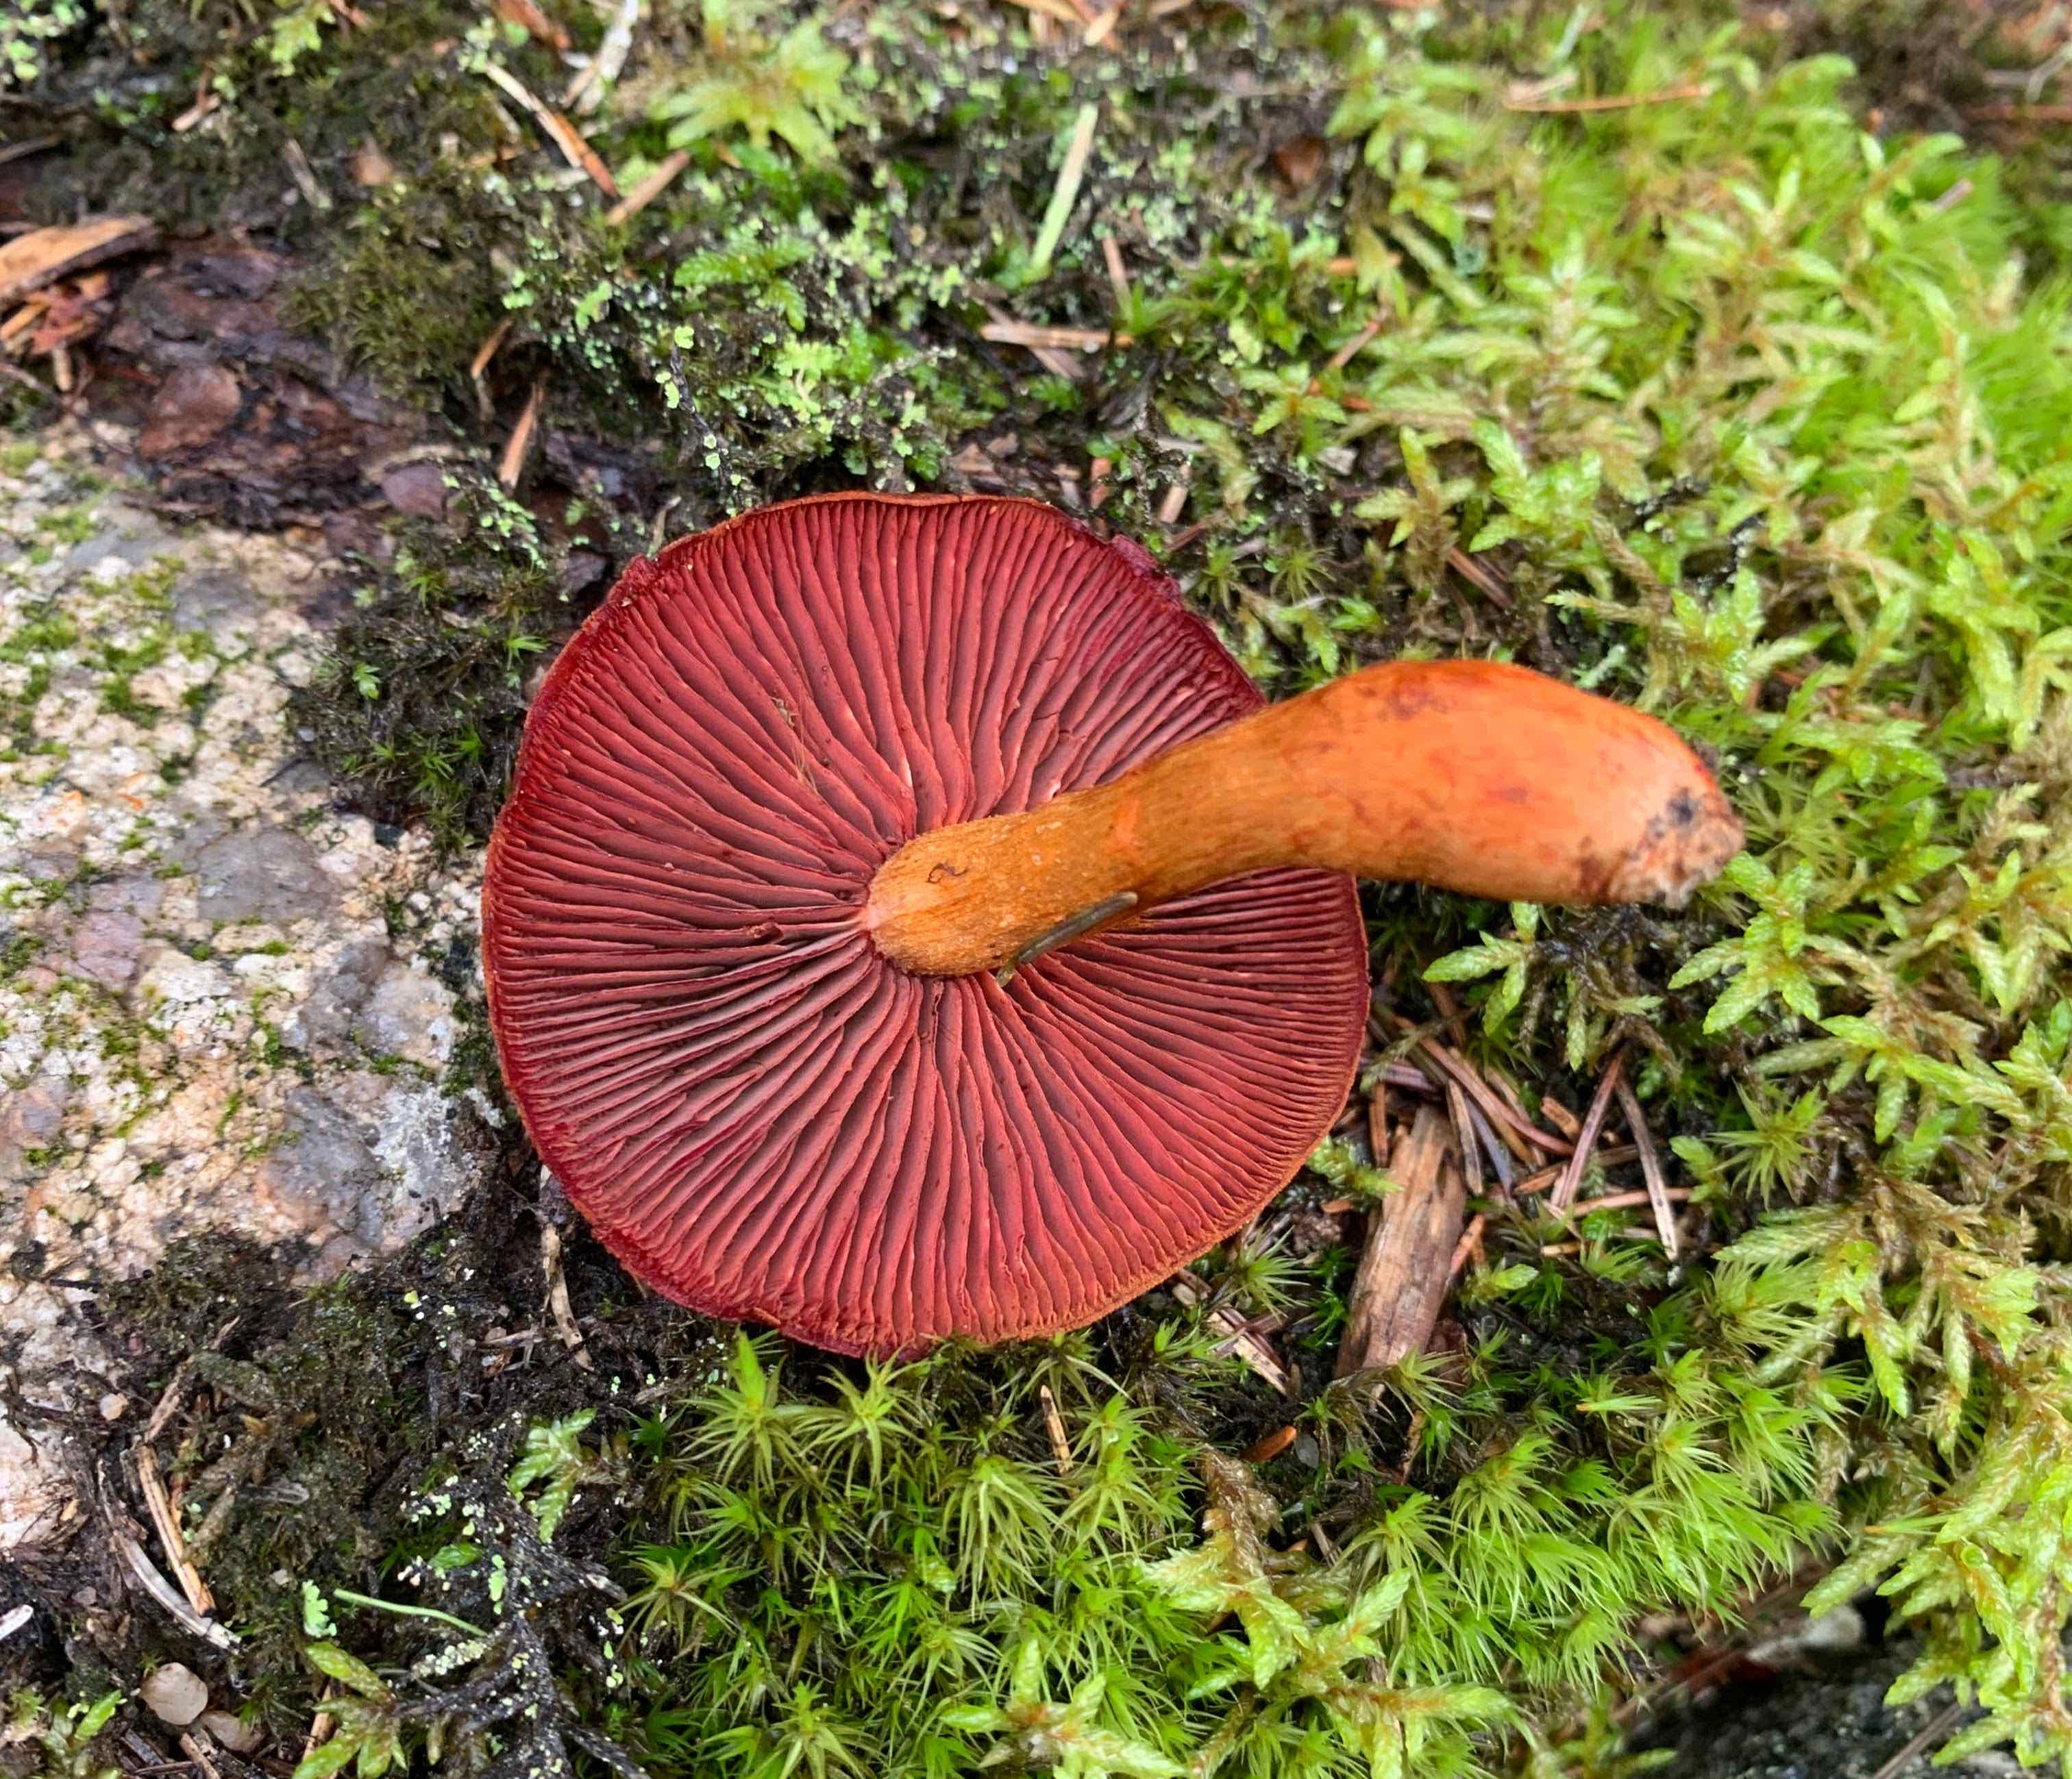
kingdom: Fungi
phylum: Basidiomycota
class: Agaricomycetes
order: Agaricales
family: Cortinariaceae
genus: Cortinarius
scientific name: Cortinarius purpureus
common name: brunrød slørhat
